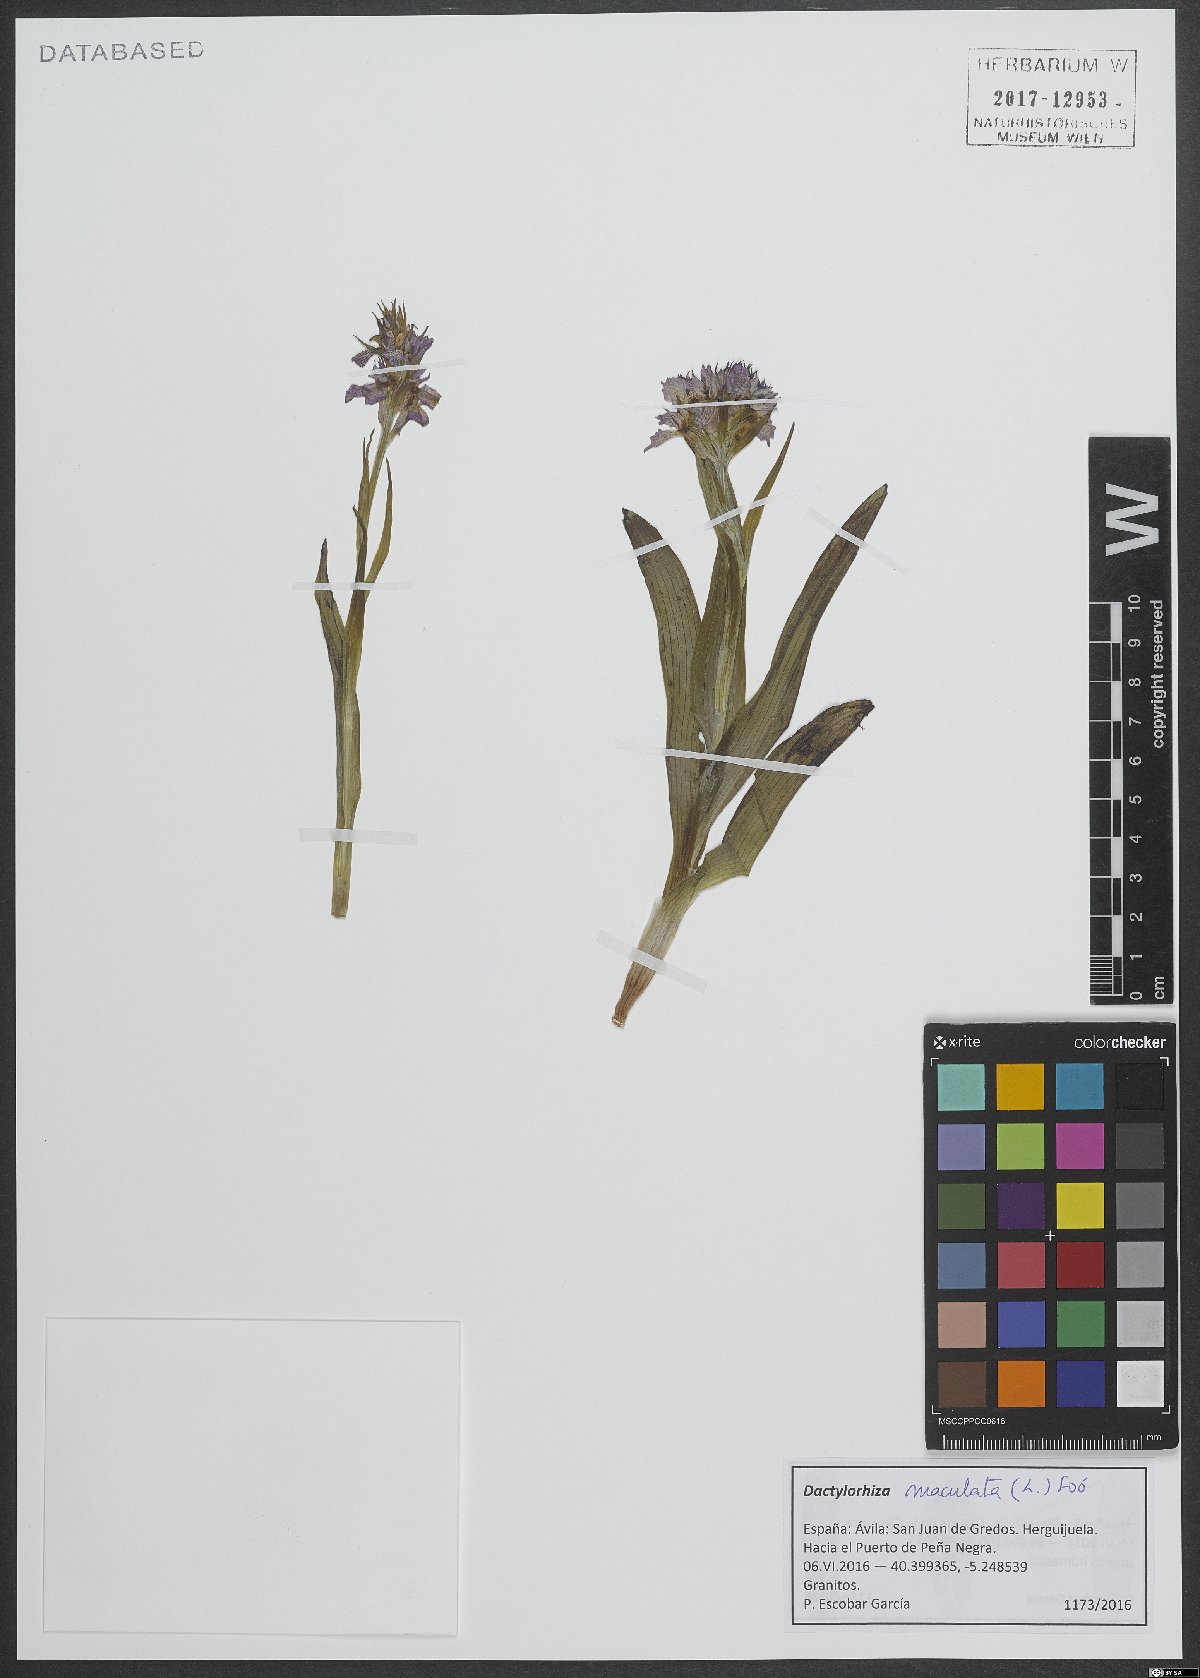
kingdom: Plantae
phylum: Tracheophyta
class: Liliopsida
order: Asparagales
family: Orchidaceae
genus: Dactylorhiza
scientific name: Dactylorhiza maculata
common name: Heath spotted-orchid
